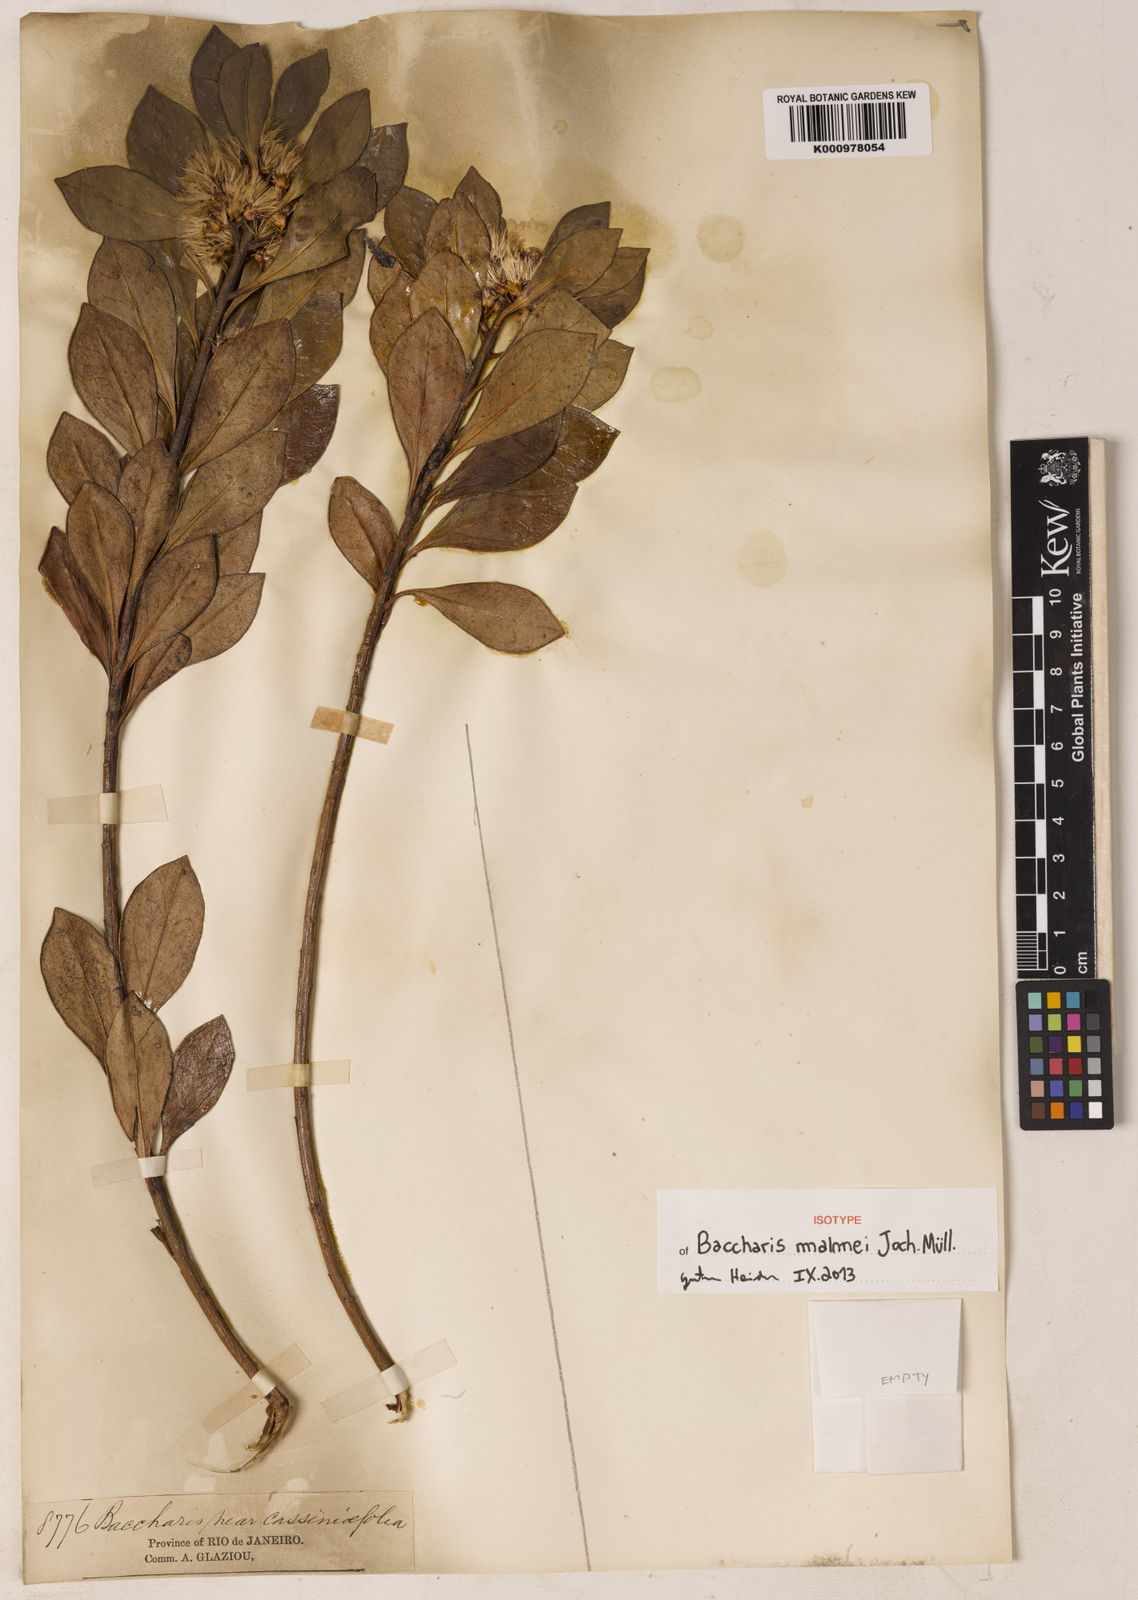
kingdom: Plantae
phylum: Tracheophyta
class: Magnoliopsida
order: Asterales
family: Asteraceae
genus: Baccharis
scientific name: Baccharis malmei
